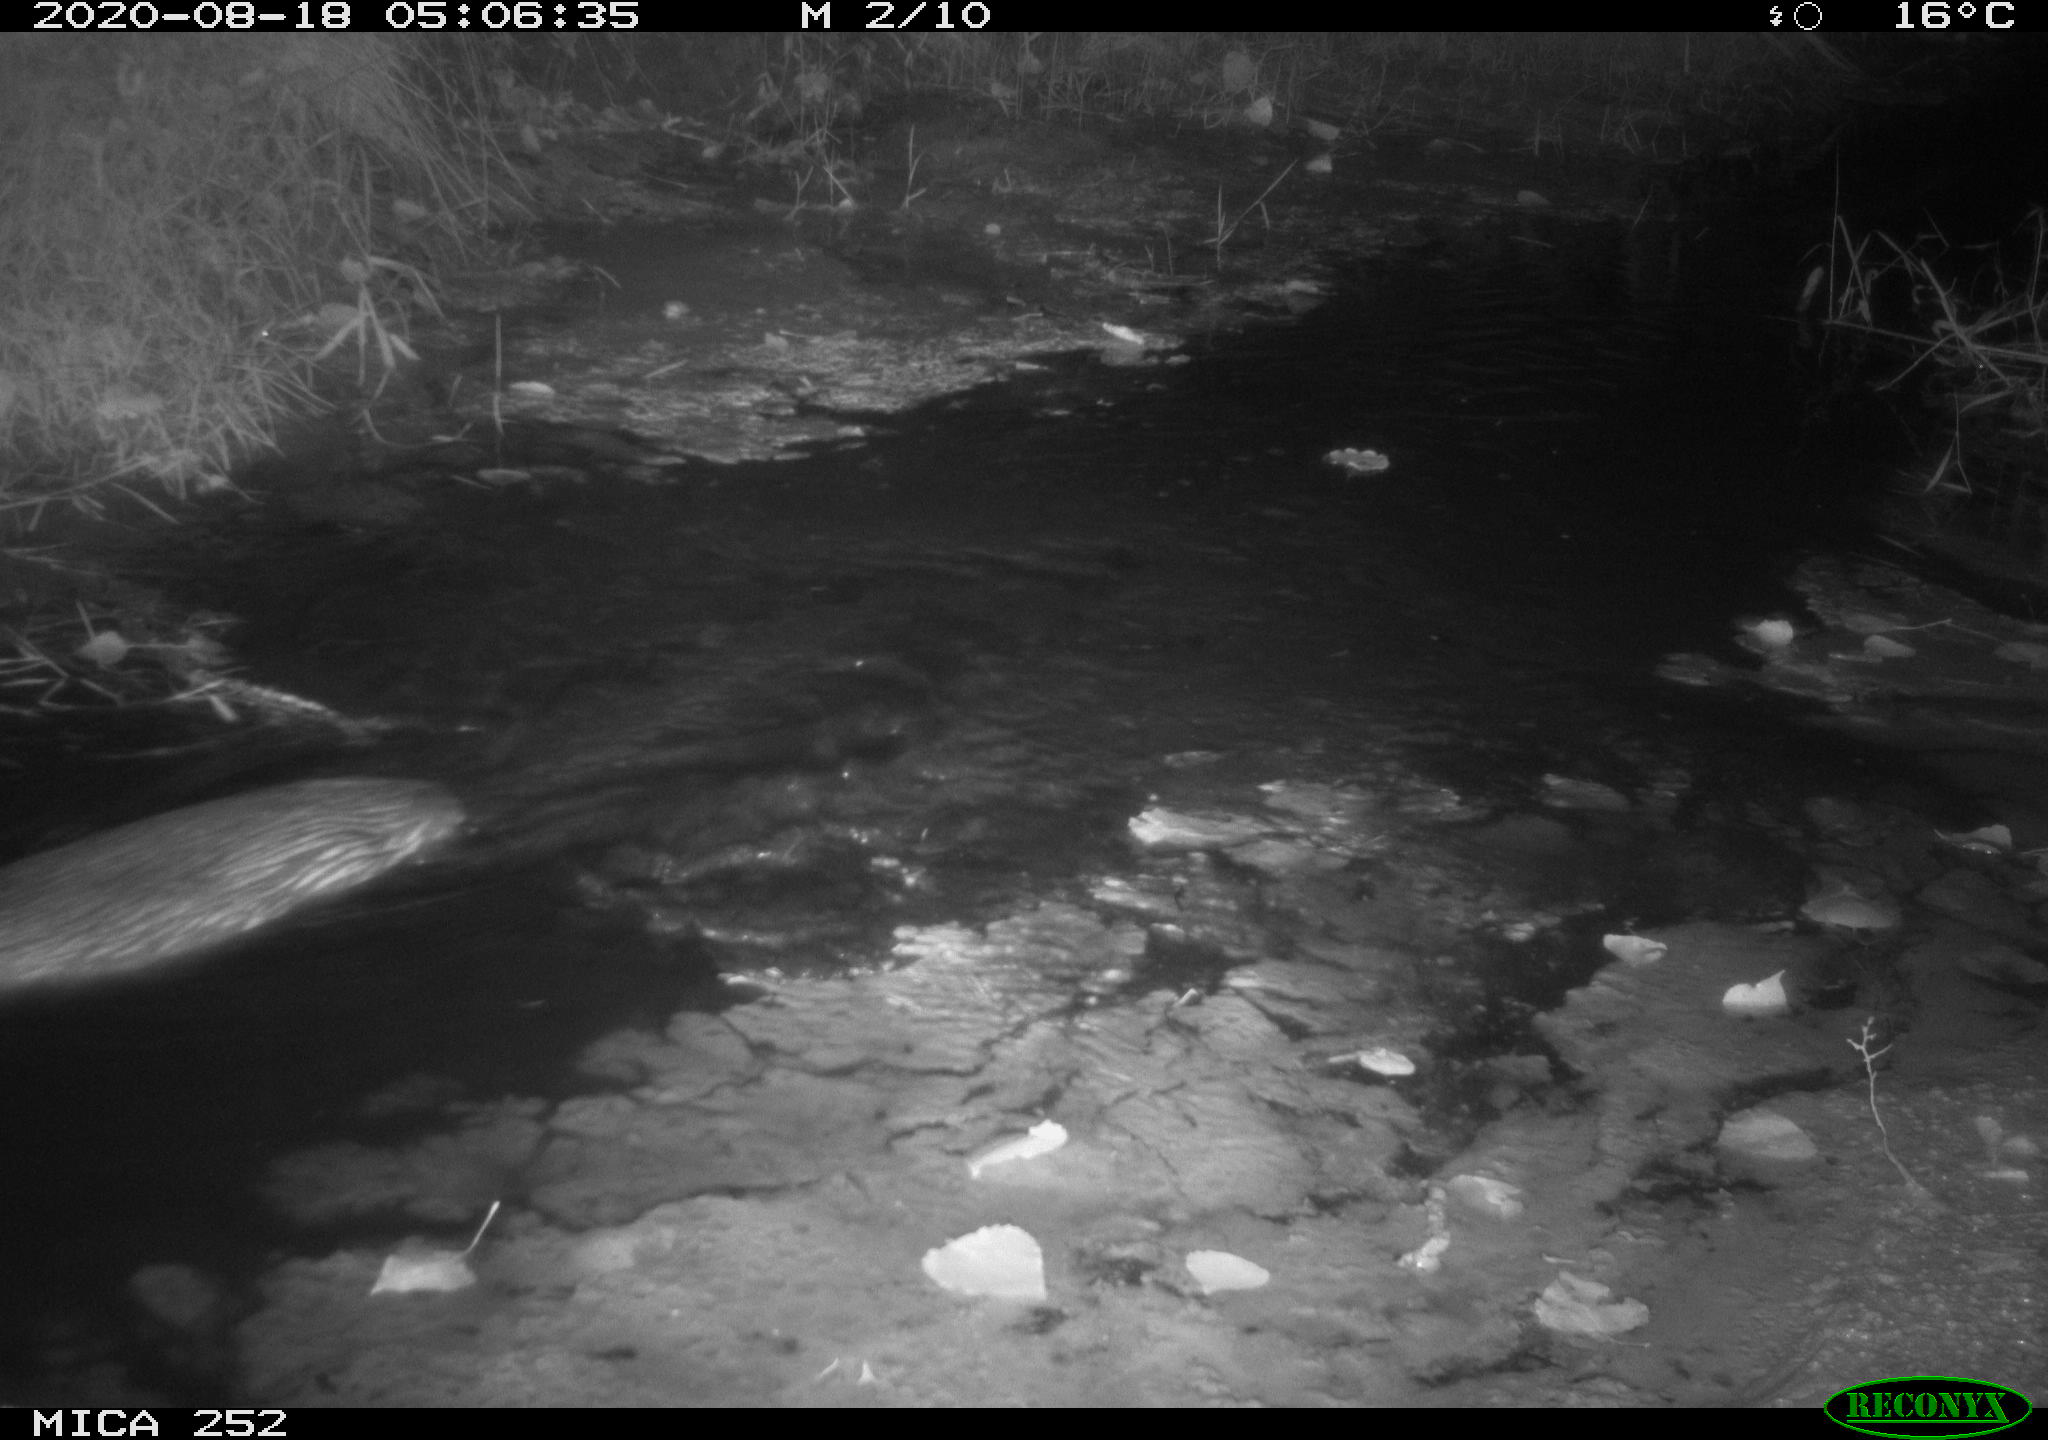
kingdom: Animalia
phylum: Chordata
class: Mammalia
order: Rodentia
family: Castoridae
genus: Castor
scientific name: Castor fiber
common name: Eurasian beaver
